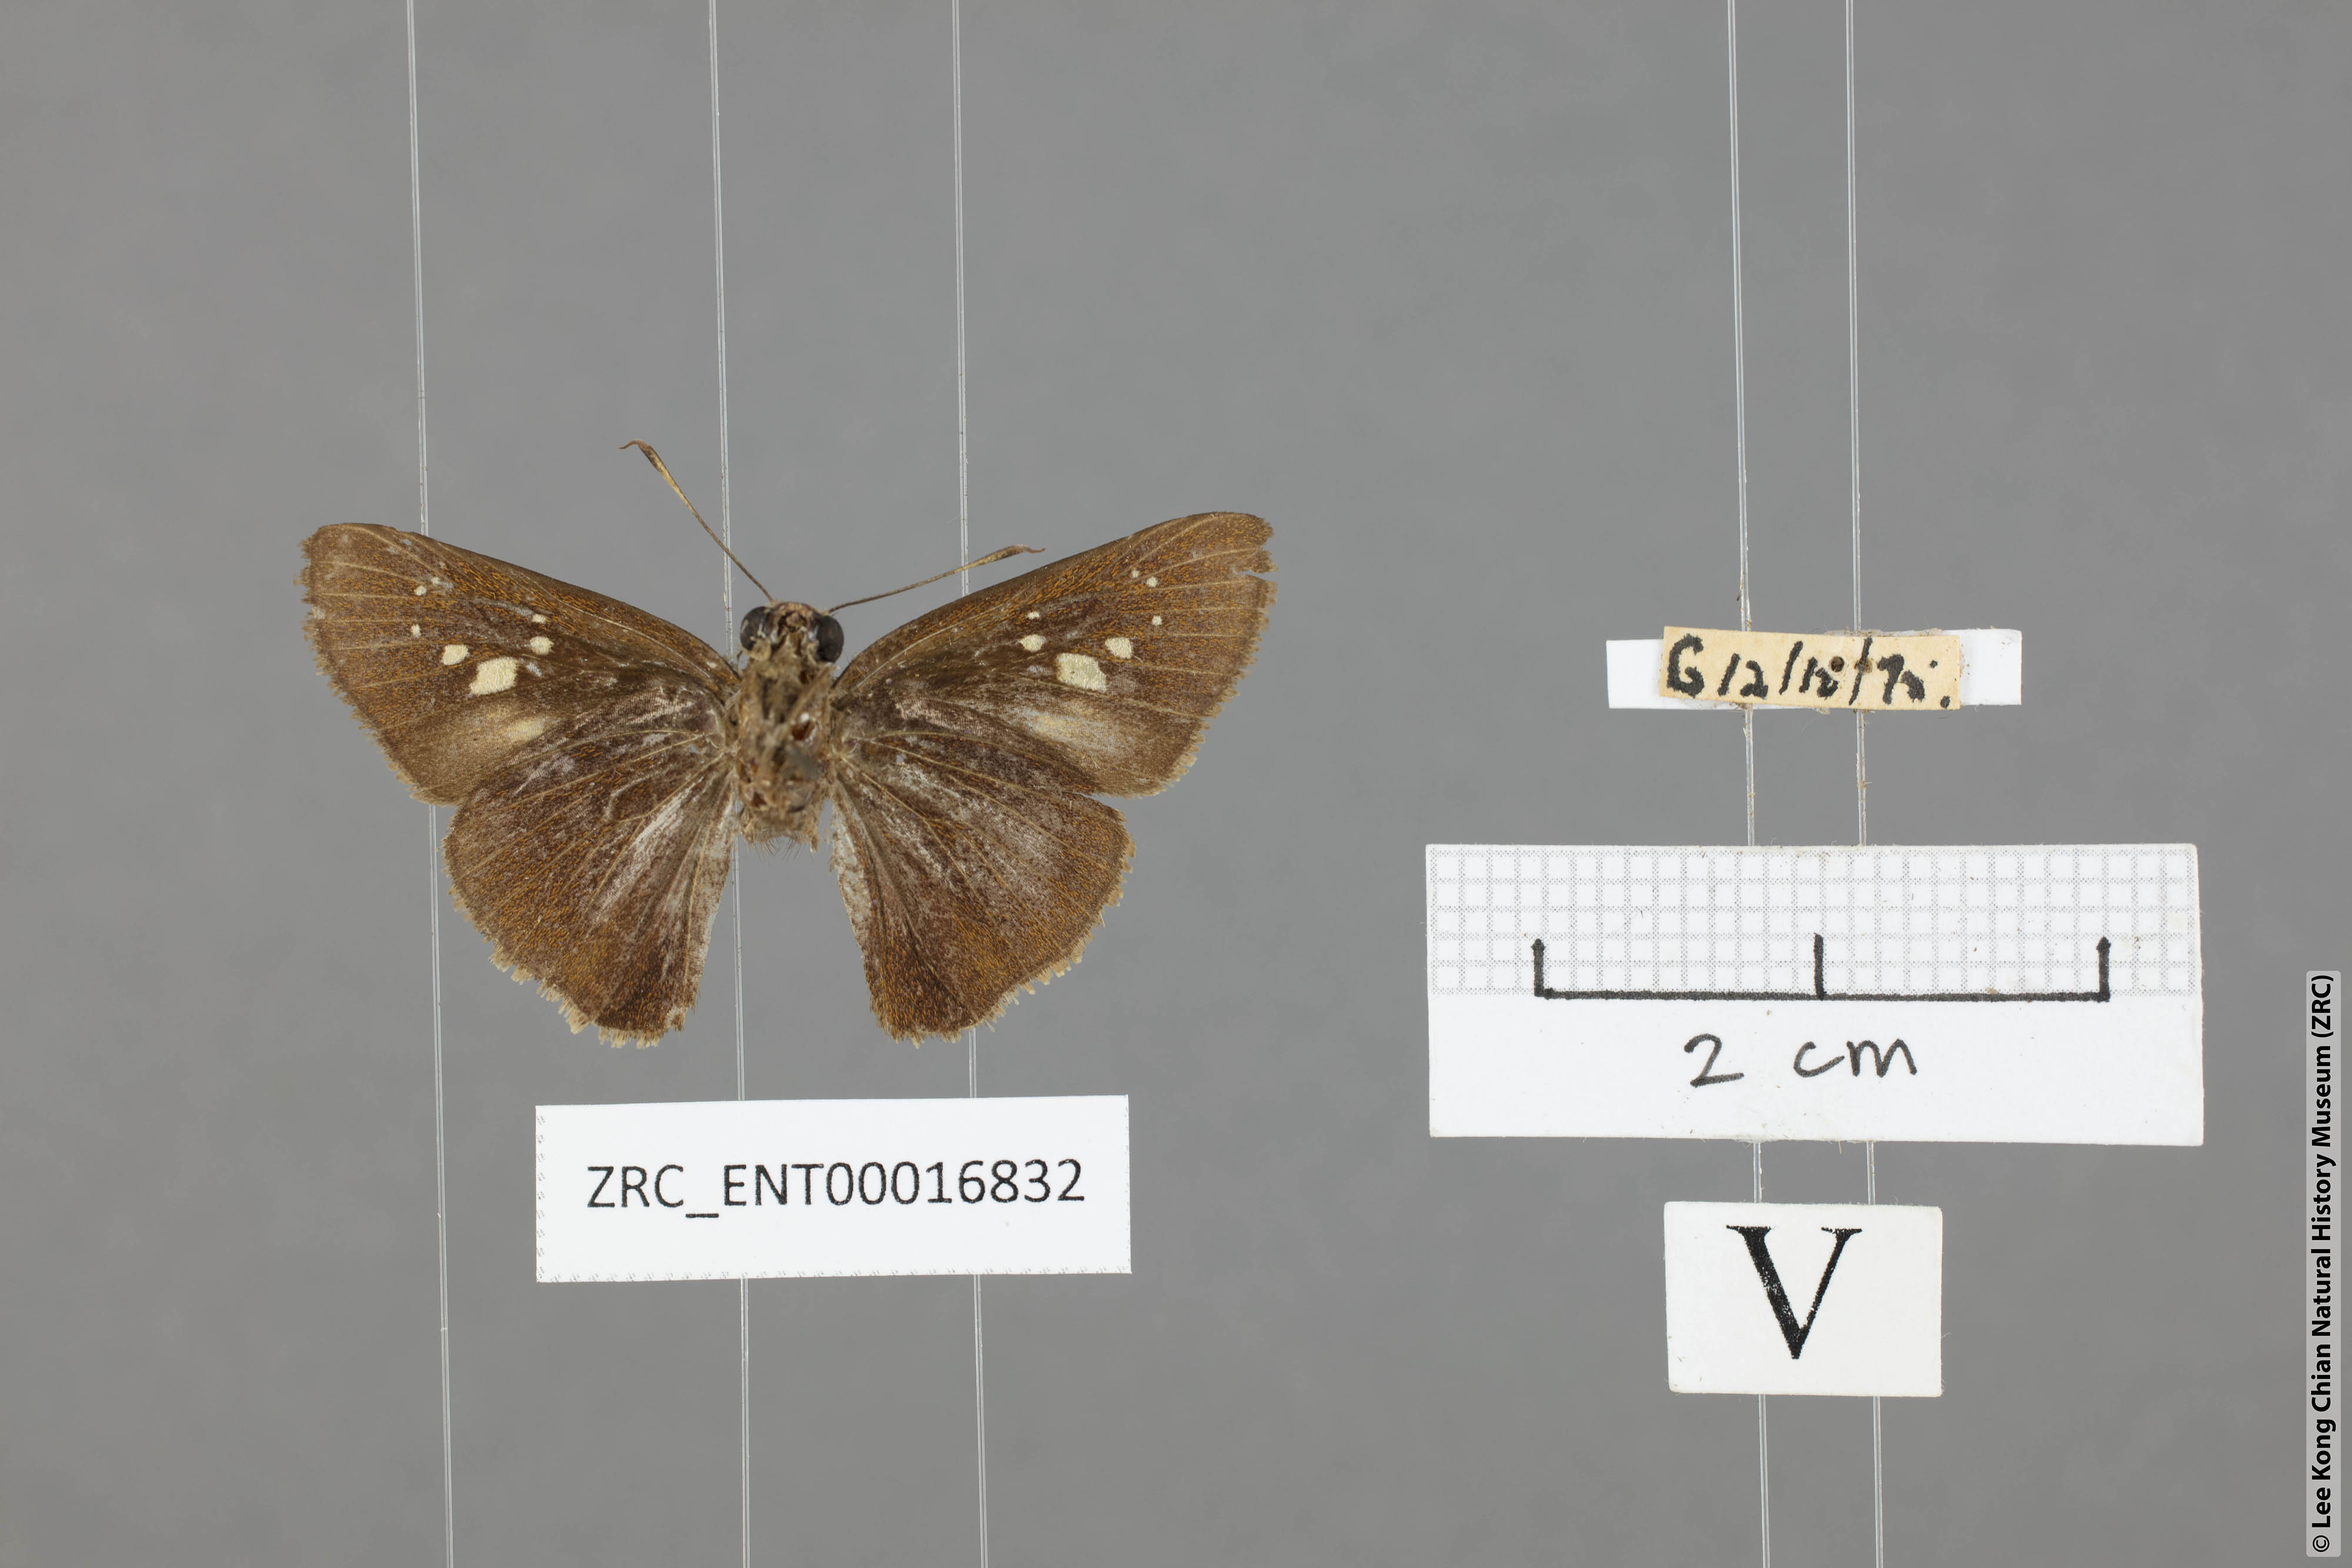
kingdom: Animalia
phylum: Arthropoda
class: Insecta
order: Lepidoptera
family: Hesperiidae
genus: Caltoris
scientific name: Caltoris cormasa
